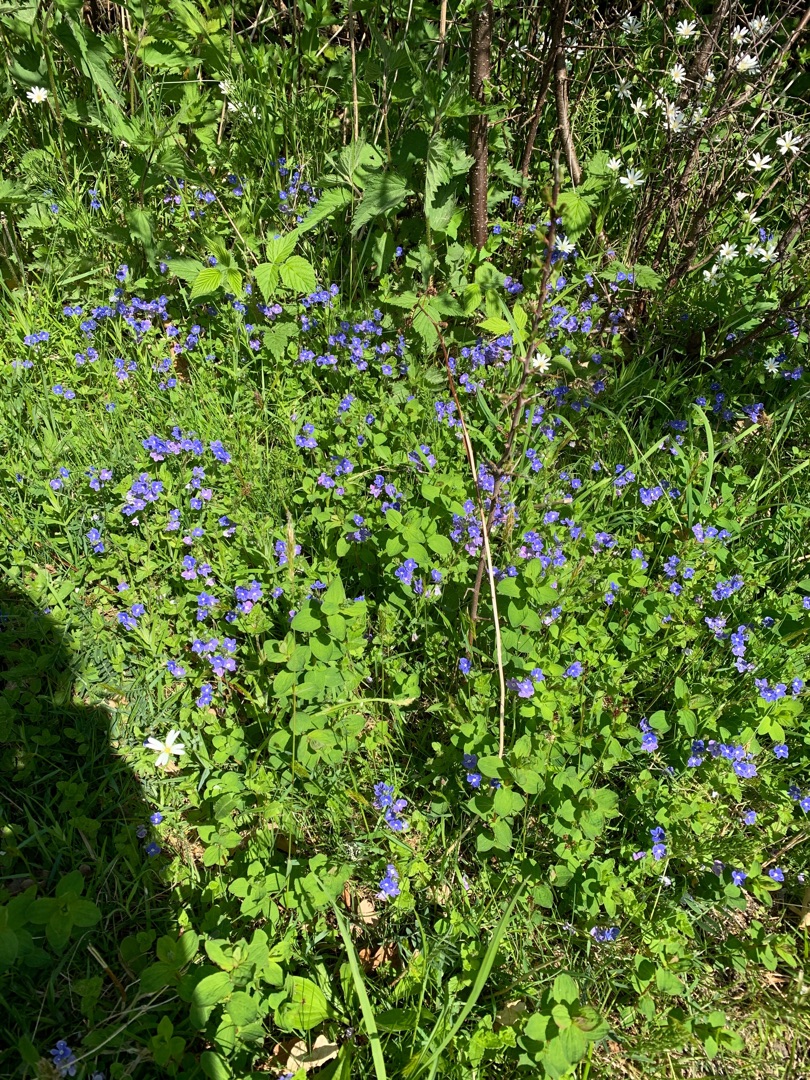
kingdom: Plantae
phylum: Tracheophyta
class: Magnoliopsida
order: Lamiales
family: Plantaginaceae
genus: Veronica
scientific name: Veronica chamaedrys
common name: Tveskægget ærenpris
